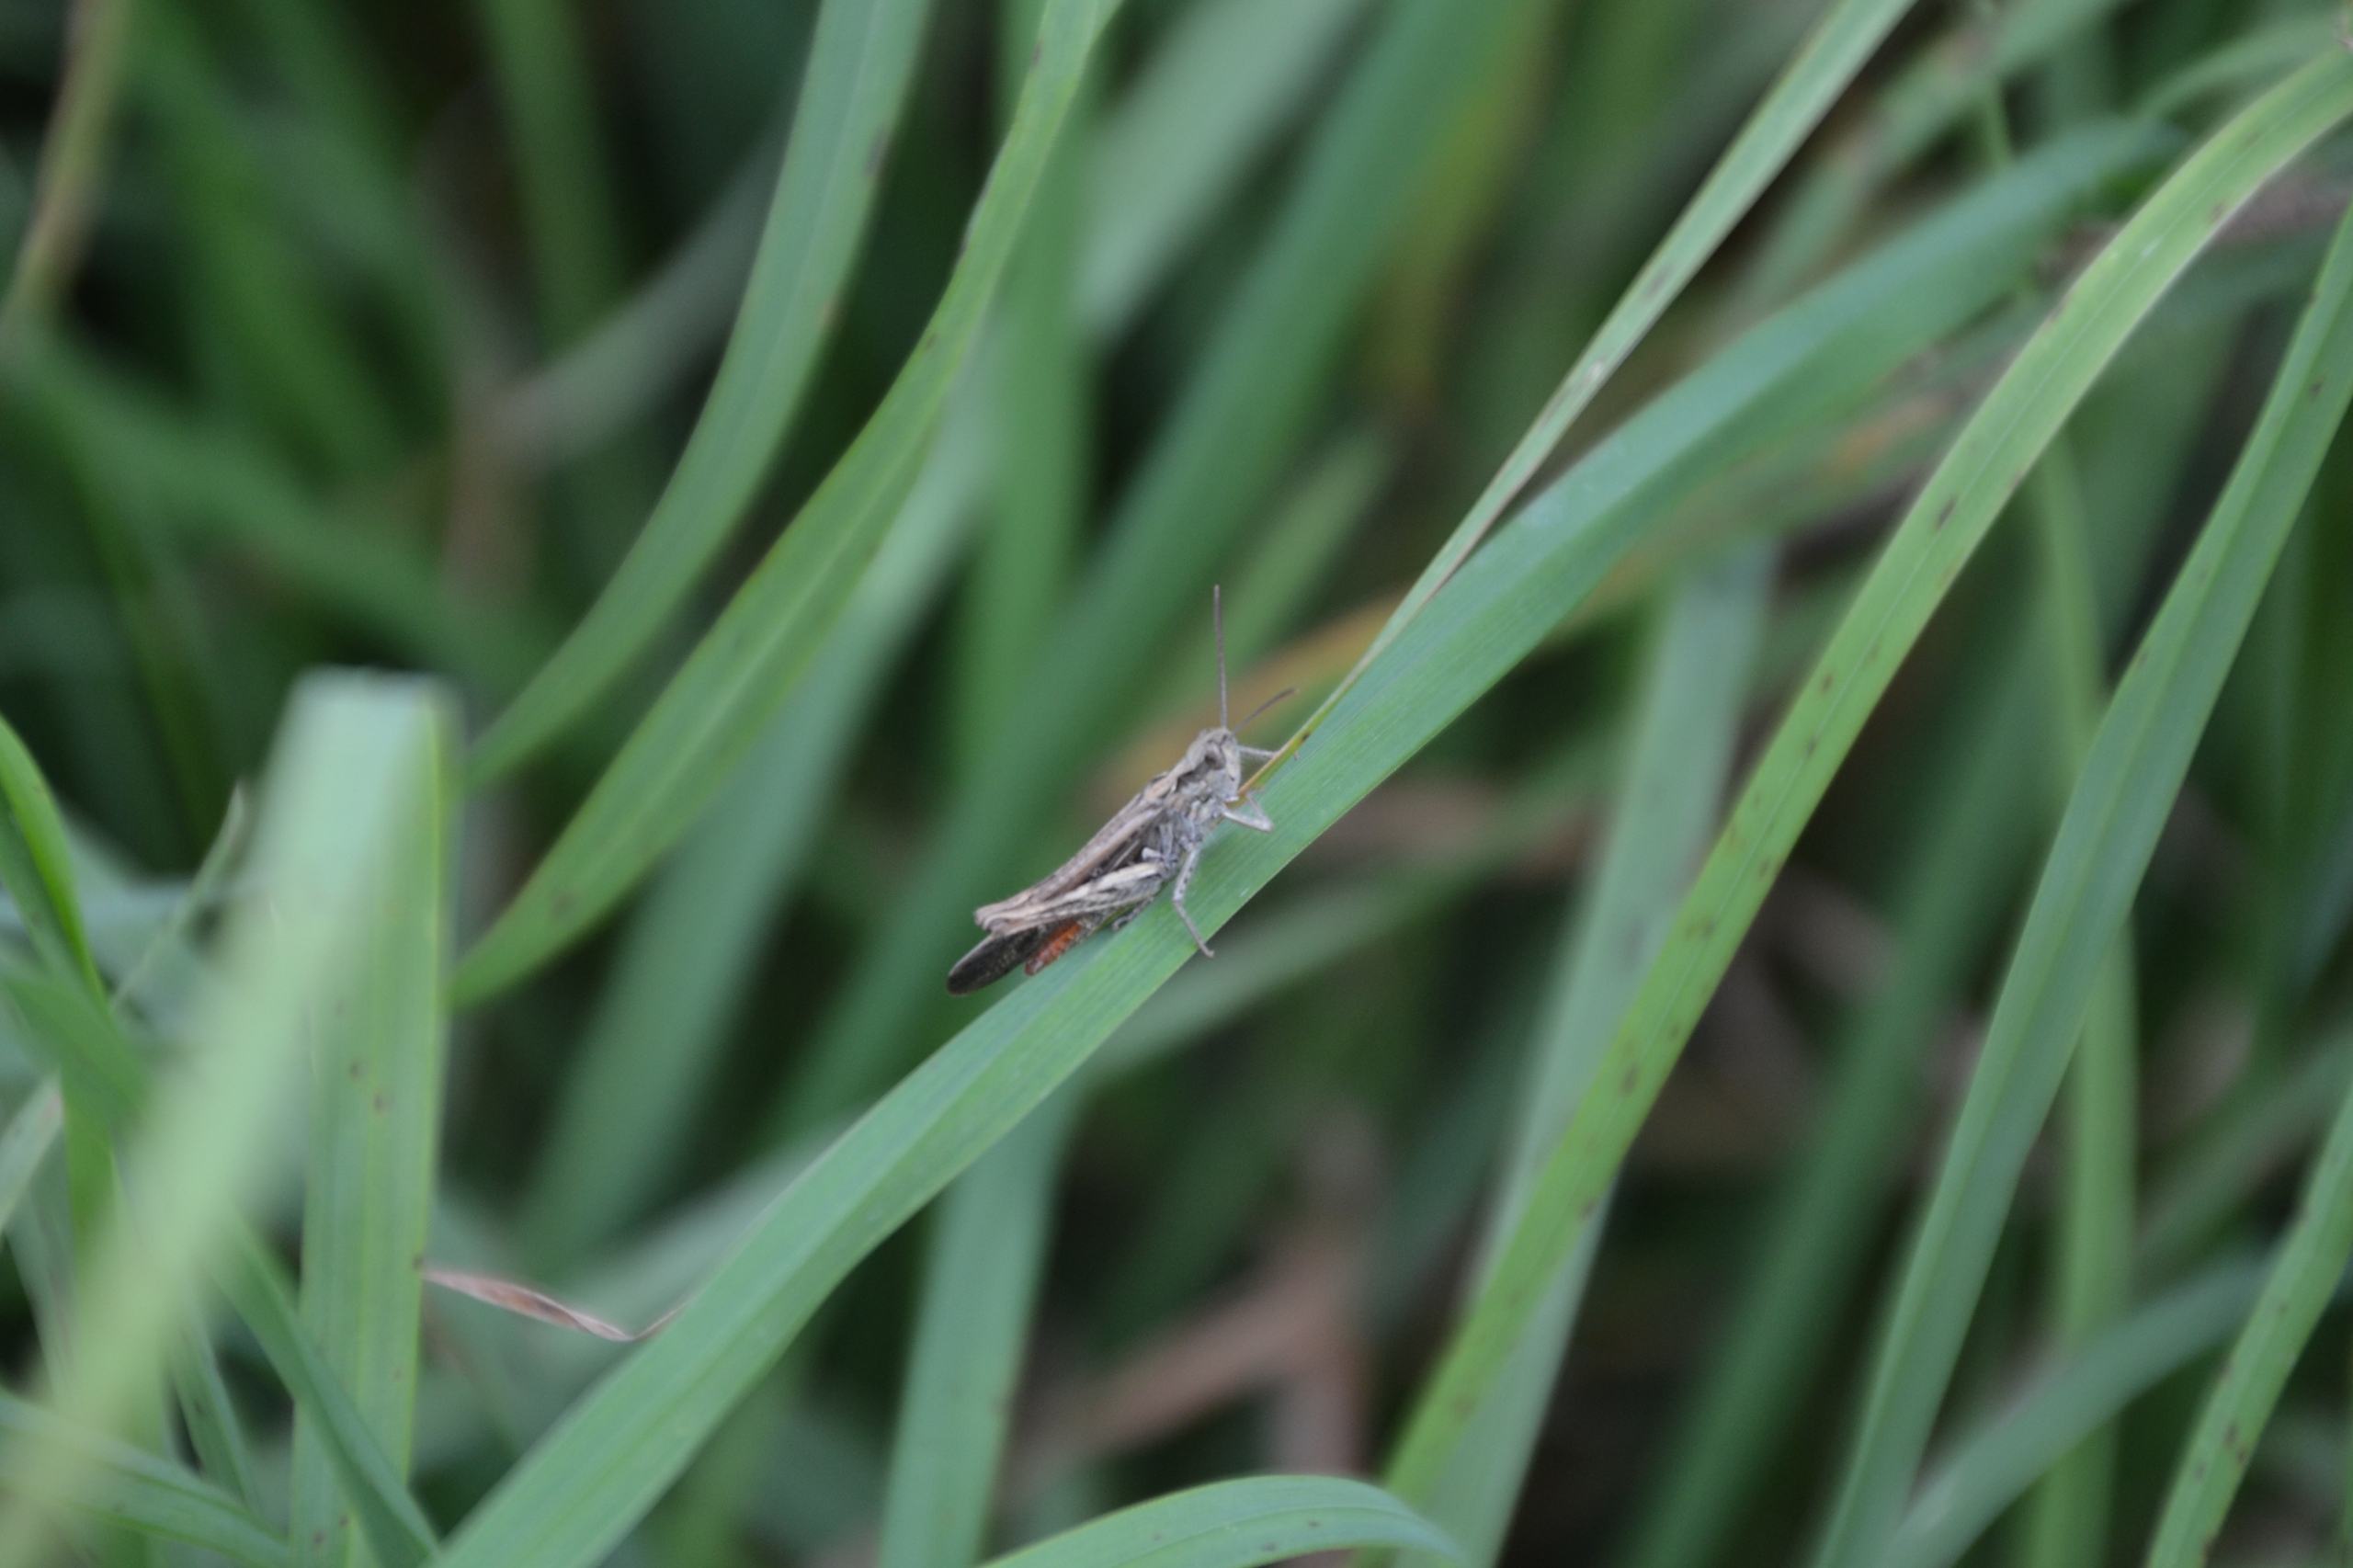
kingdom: Animalia
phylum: Arthropoda
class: Insecta
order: Orthoptera
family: Acrididae
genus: Chorthippus
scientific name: Chorthippus brunneus
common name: Almindelig markgræshoppe
